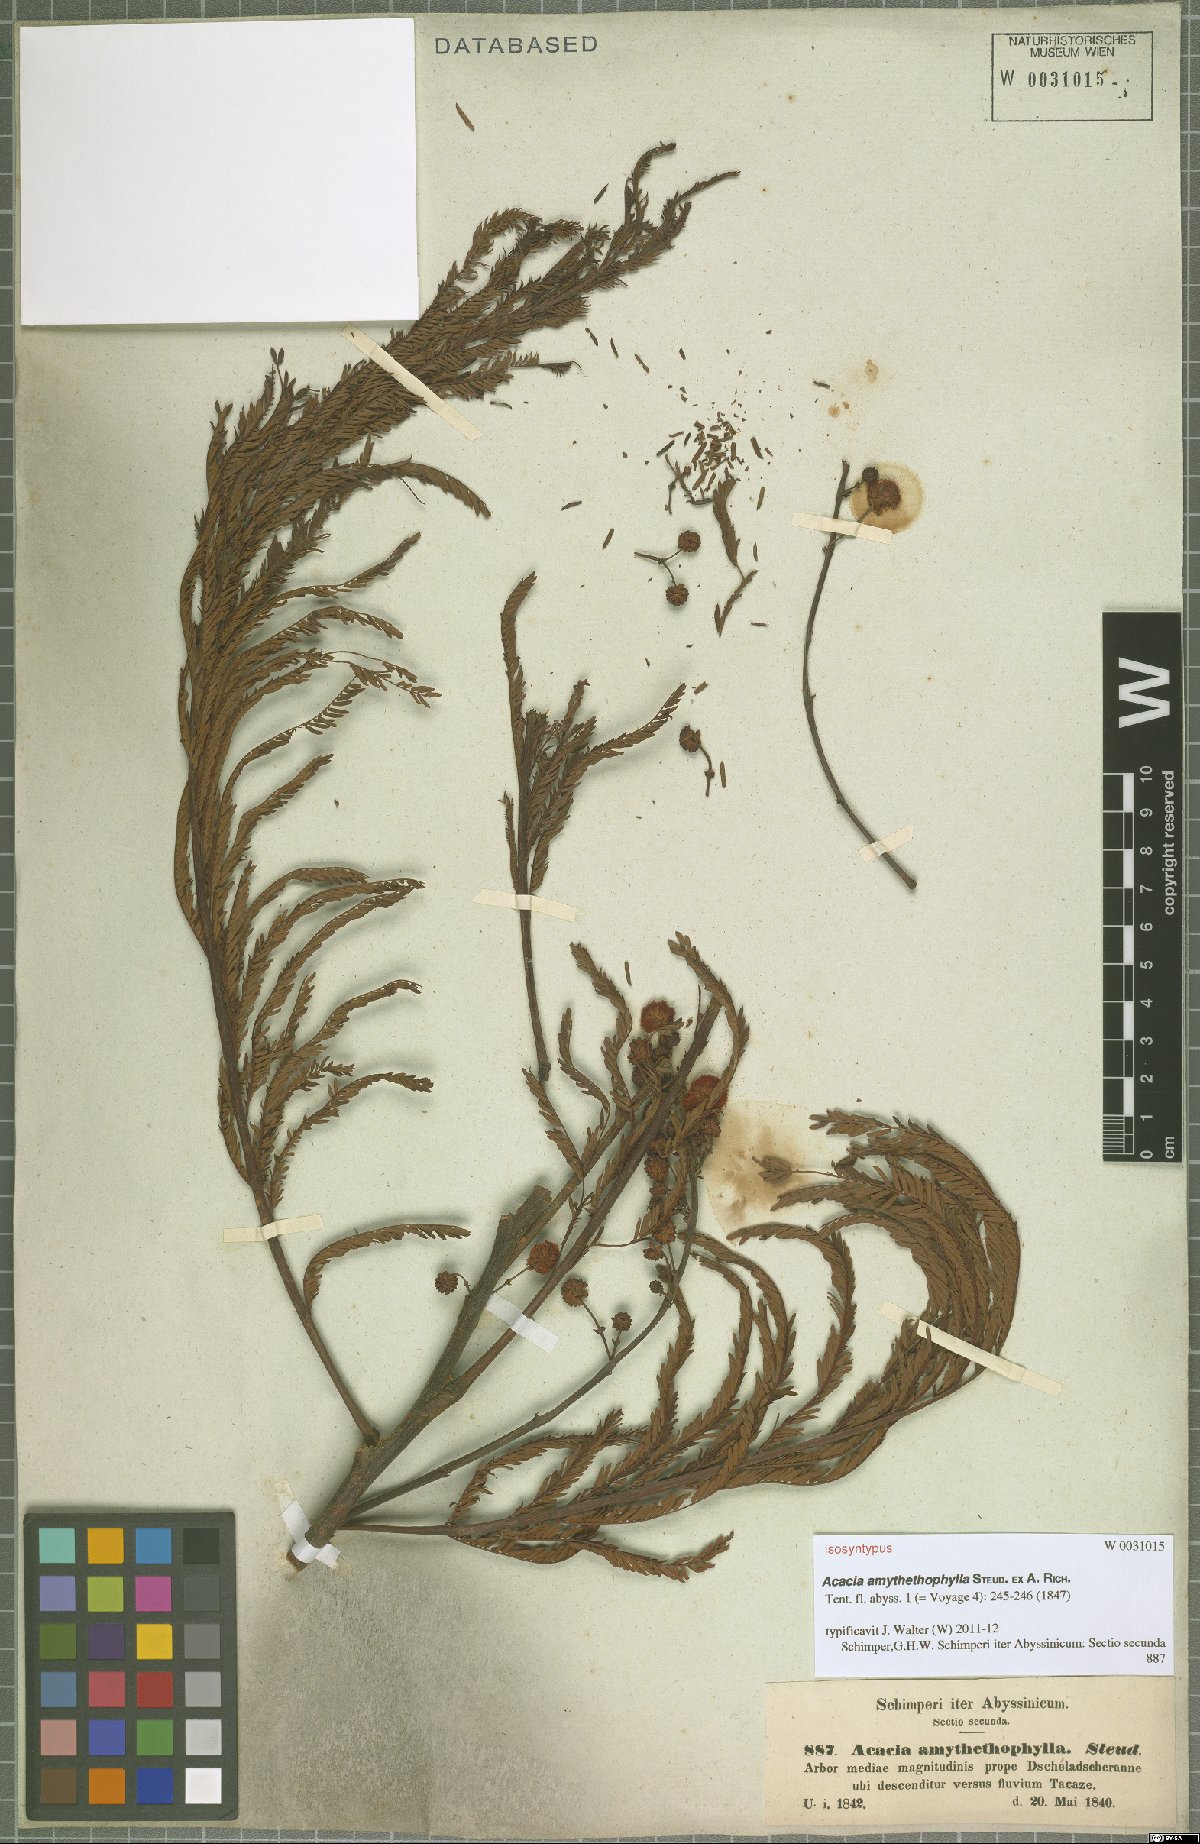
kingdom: Plantae
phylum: Tracheophyta
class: Magnoliopsida
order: Fabales
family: Fabaceae
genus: Vachellia
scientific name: Vachellia amythethophylla
